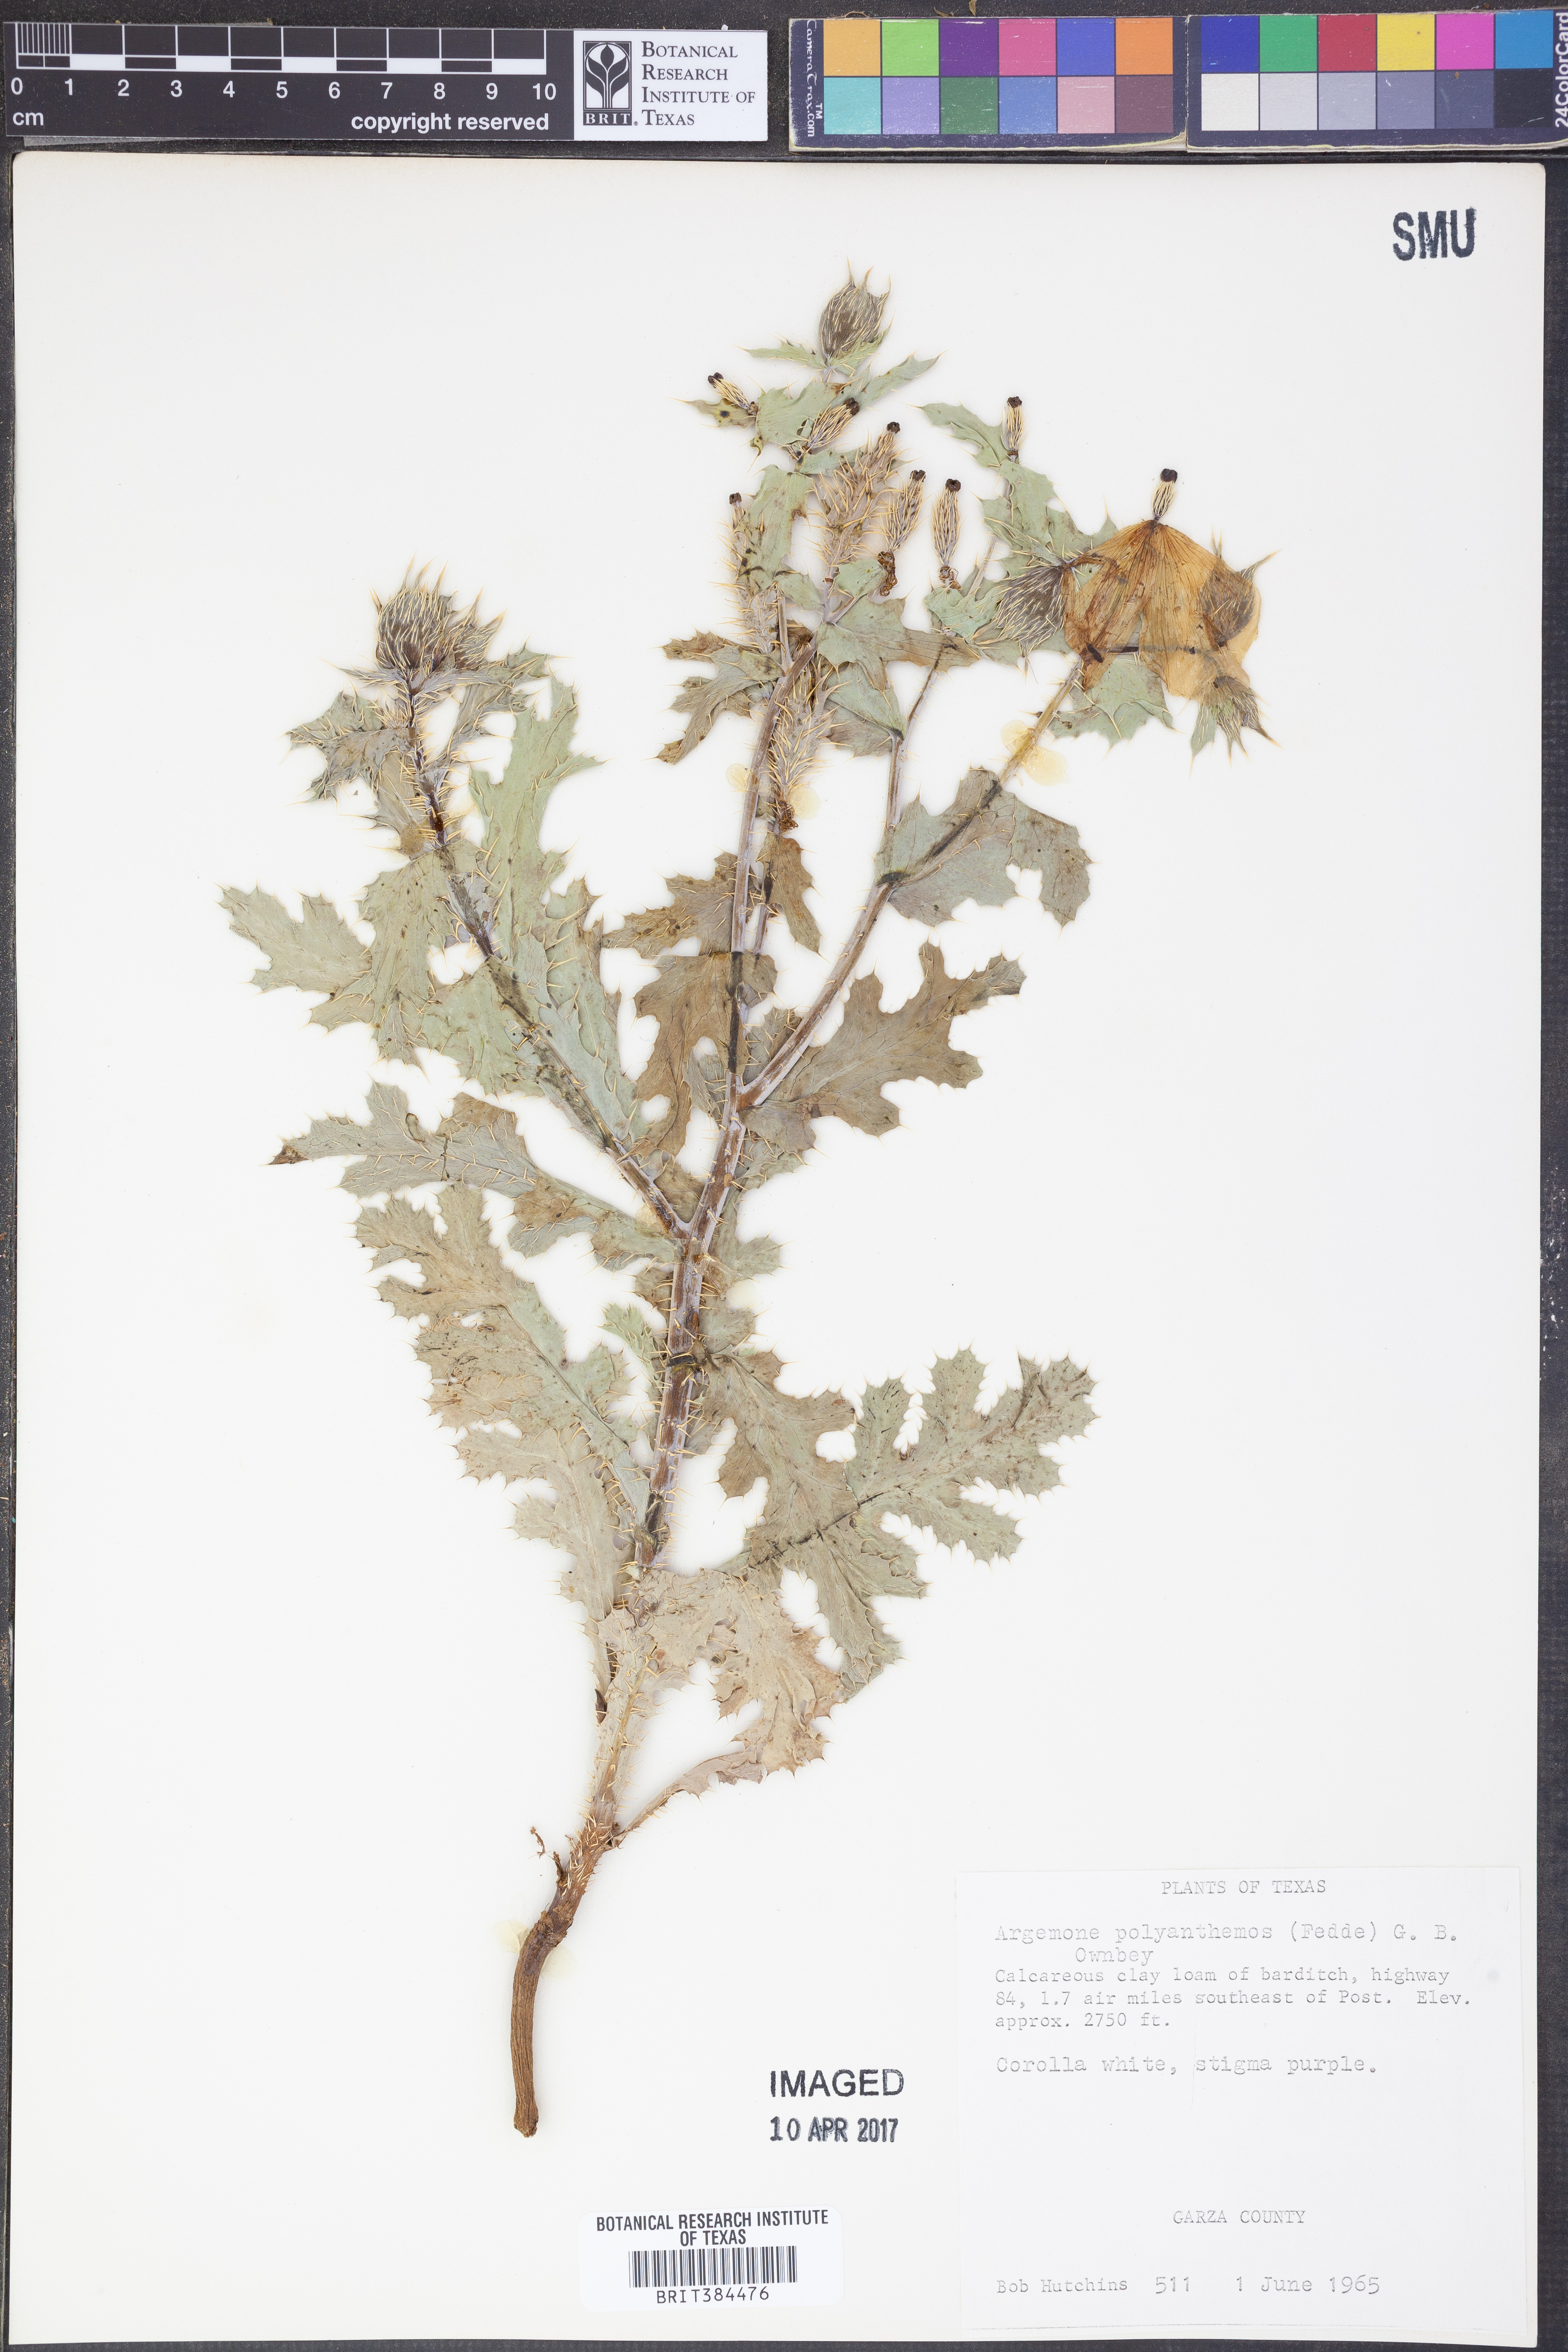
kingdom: Plantae
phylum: Tracheophyta
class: Magnoliopsida
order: Ranunculales
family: Papaveraceae
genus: Argemone
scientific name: Argemone polyanthemos
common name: Plains prickly-poppy
